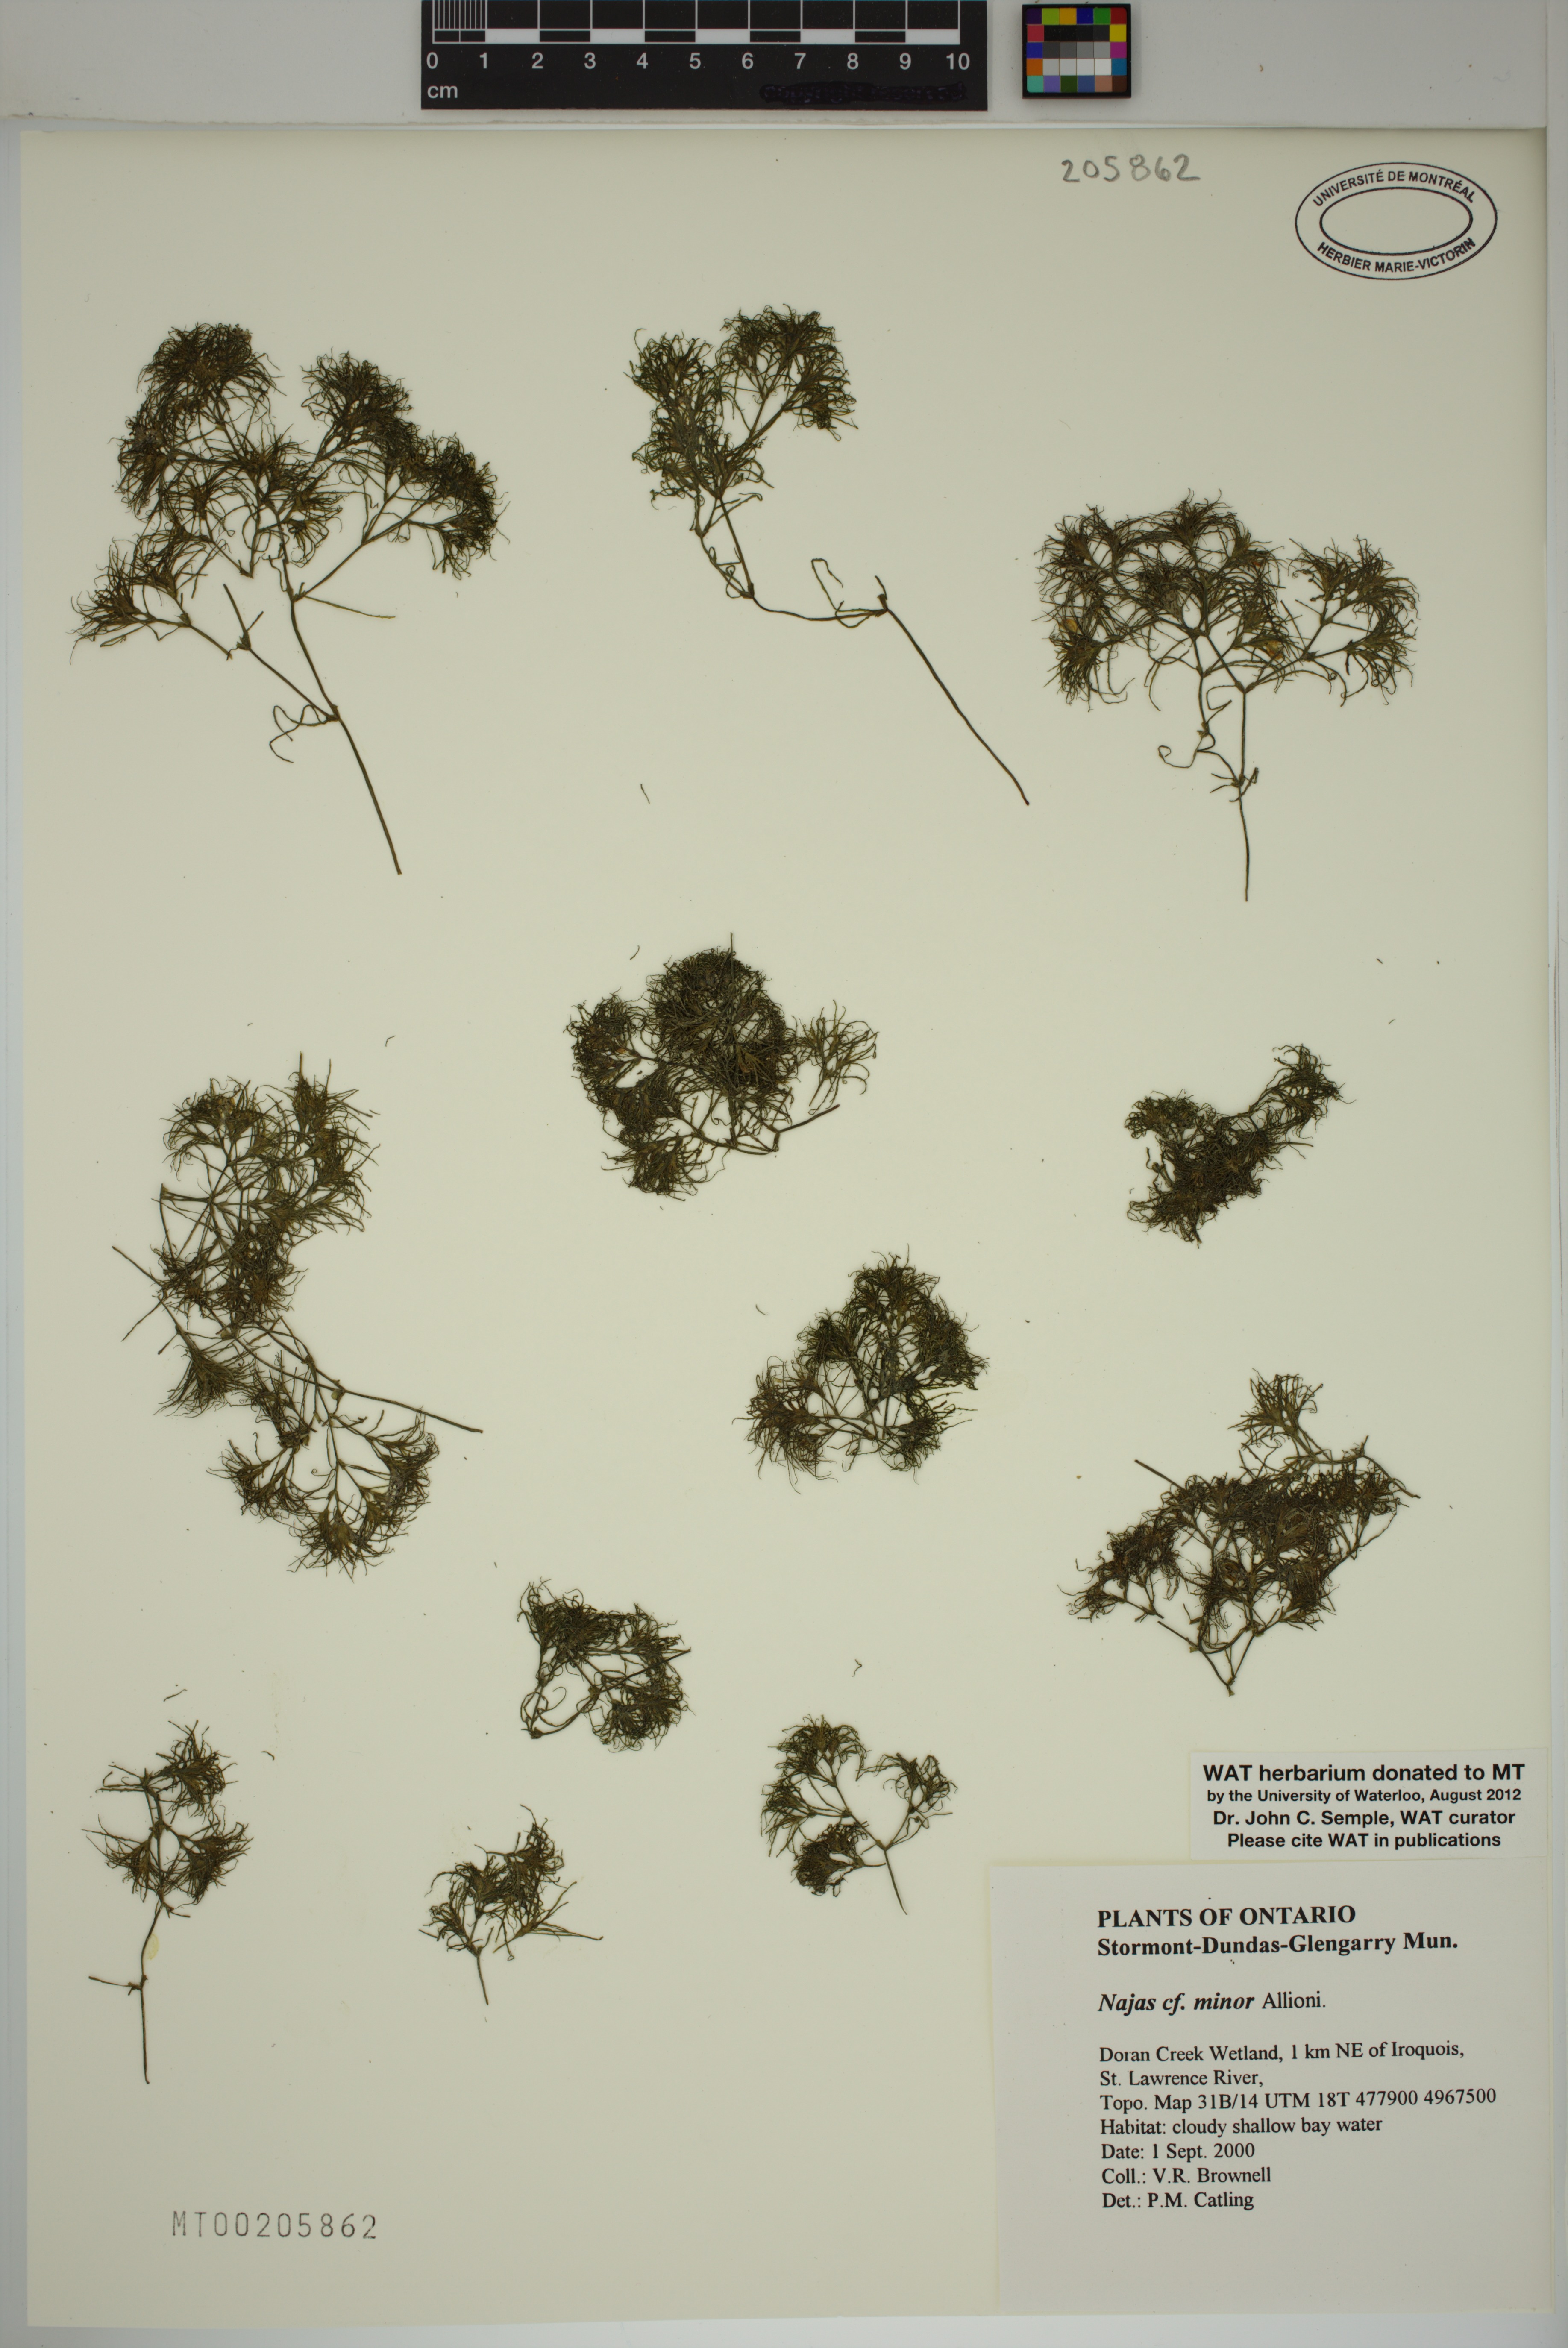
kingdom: Plantae
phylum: Tracheophyta
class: Liliopsida
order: Alismatales
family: Hydrocharitaceae
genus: Najas
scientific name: Najas minor
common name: Brittle naiad
